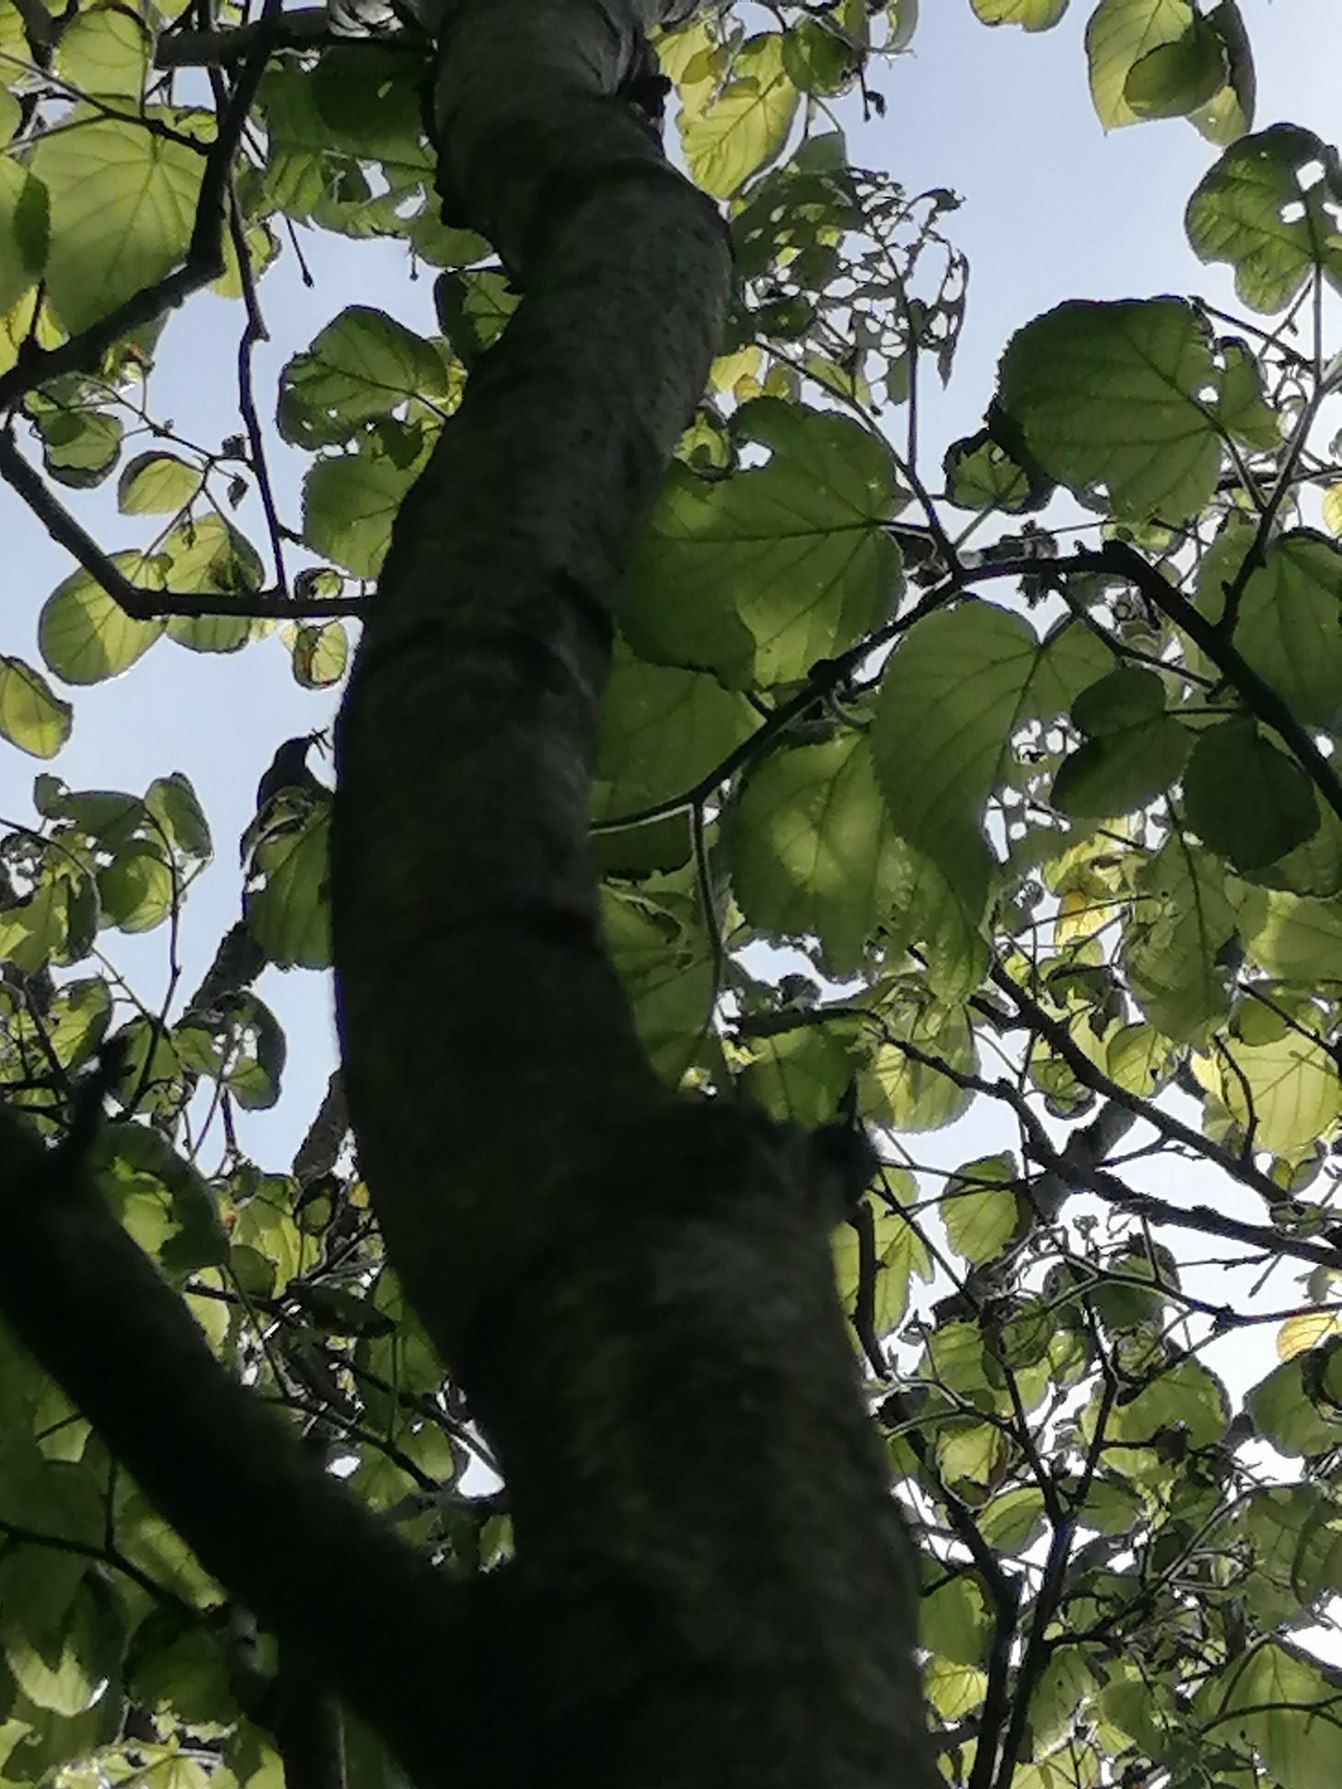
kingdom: Animalia
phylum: Chordata
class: Aves
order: Passeriformes
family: Sturnidae
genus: Sturnus
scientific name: Sturnus vulgaris
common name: Stær
